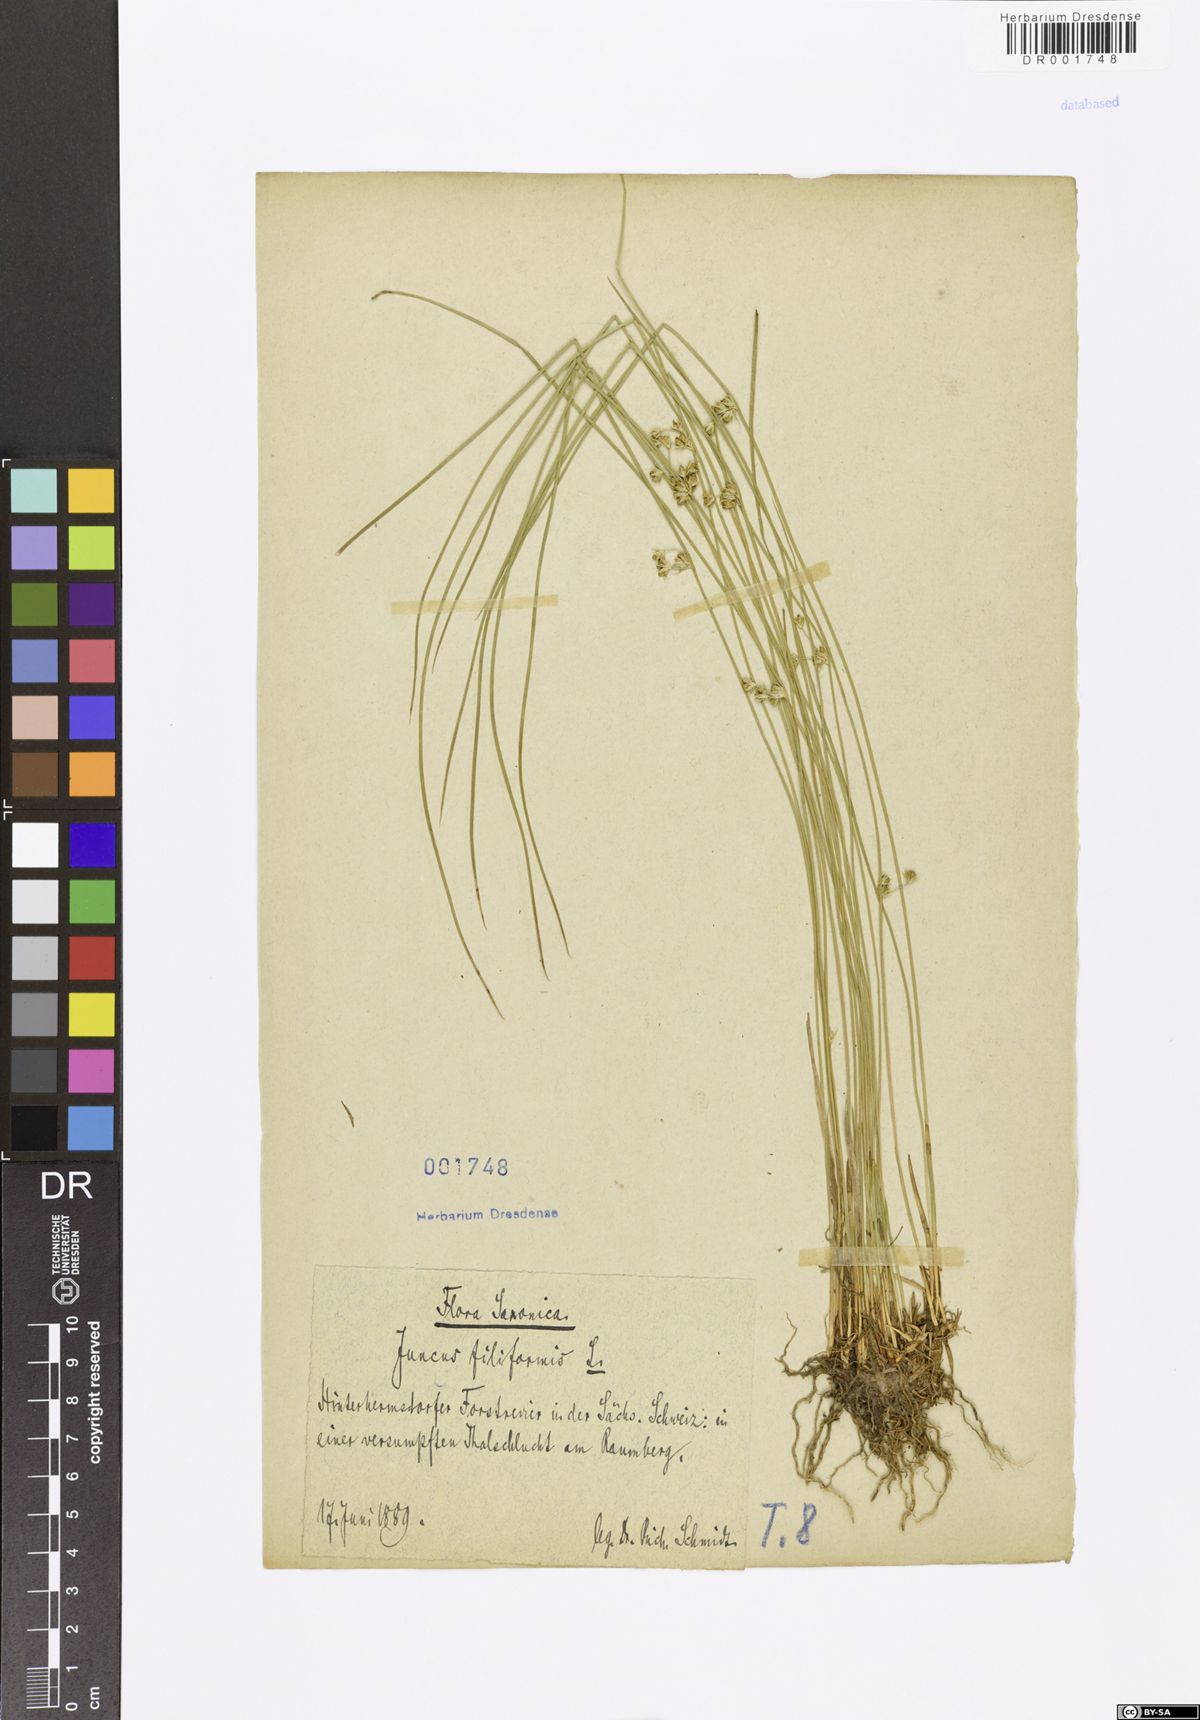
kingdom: Plantae
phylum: Tracheophyta
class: Liliopsida
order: Poales
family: Juncaceae
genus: Juncus
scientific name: Juncus inflexus
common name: Hard rush
